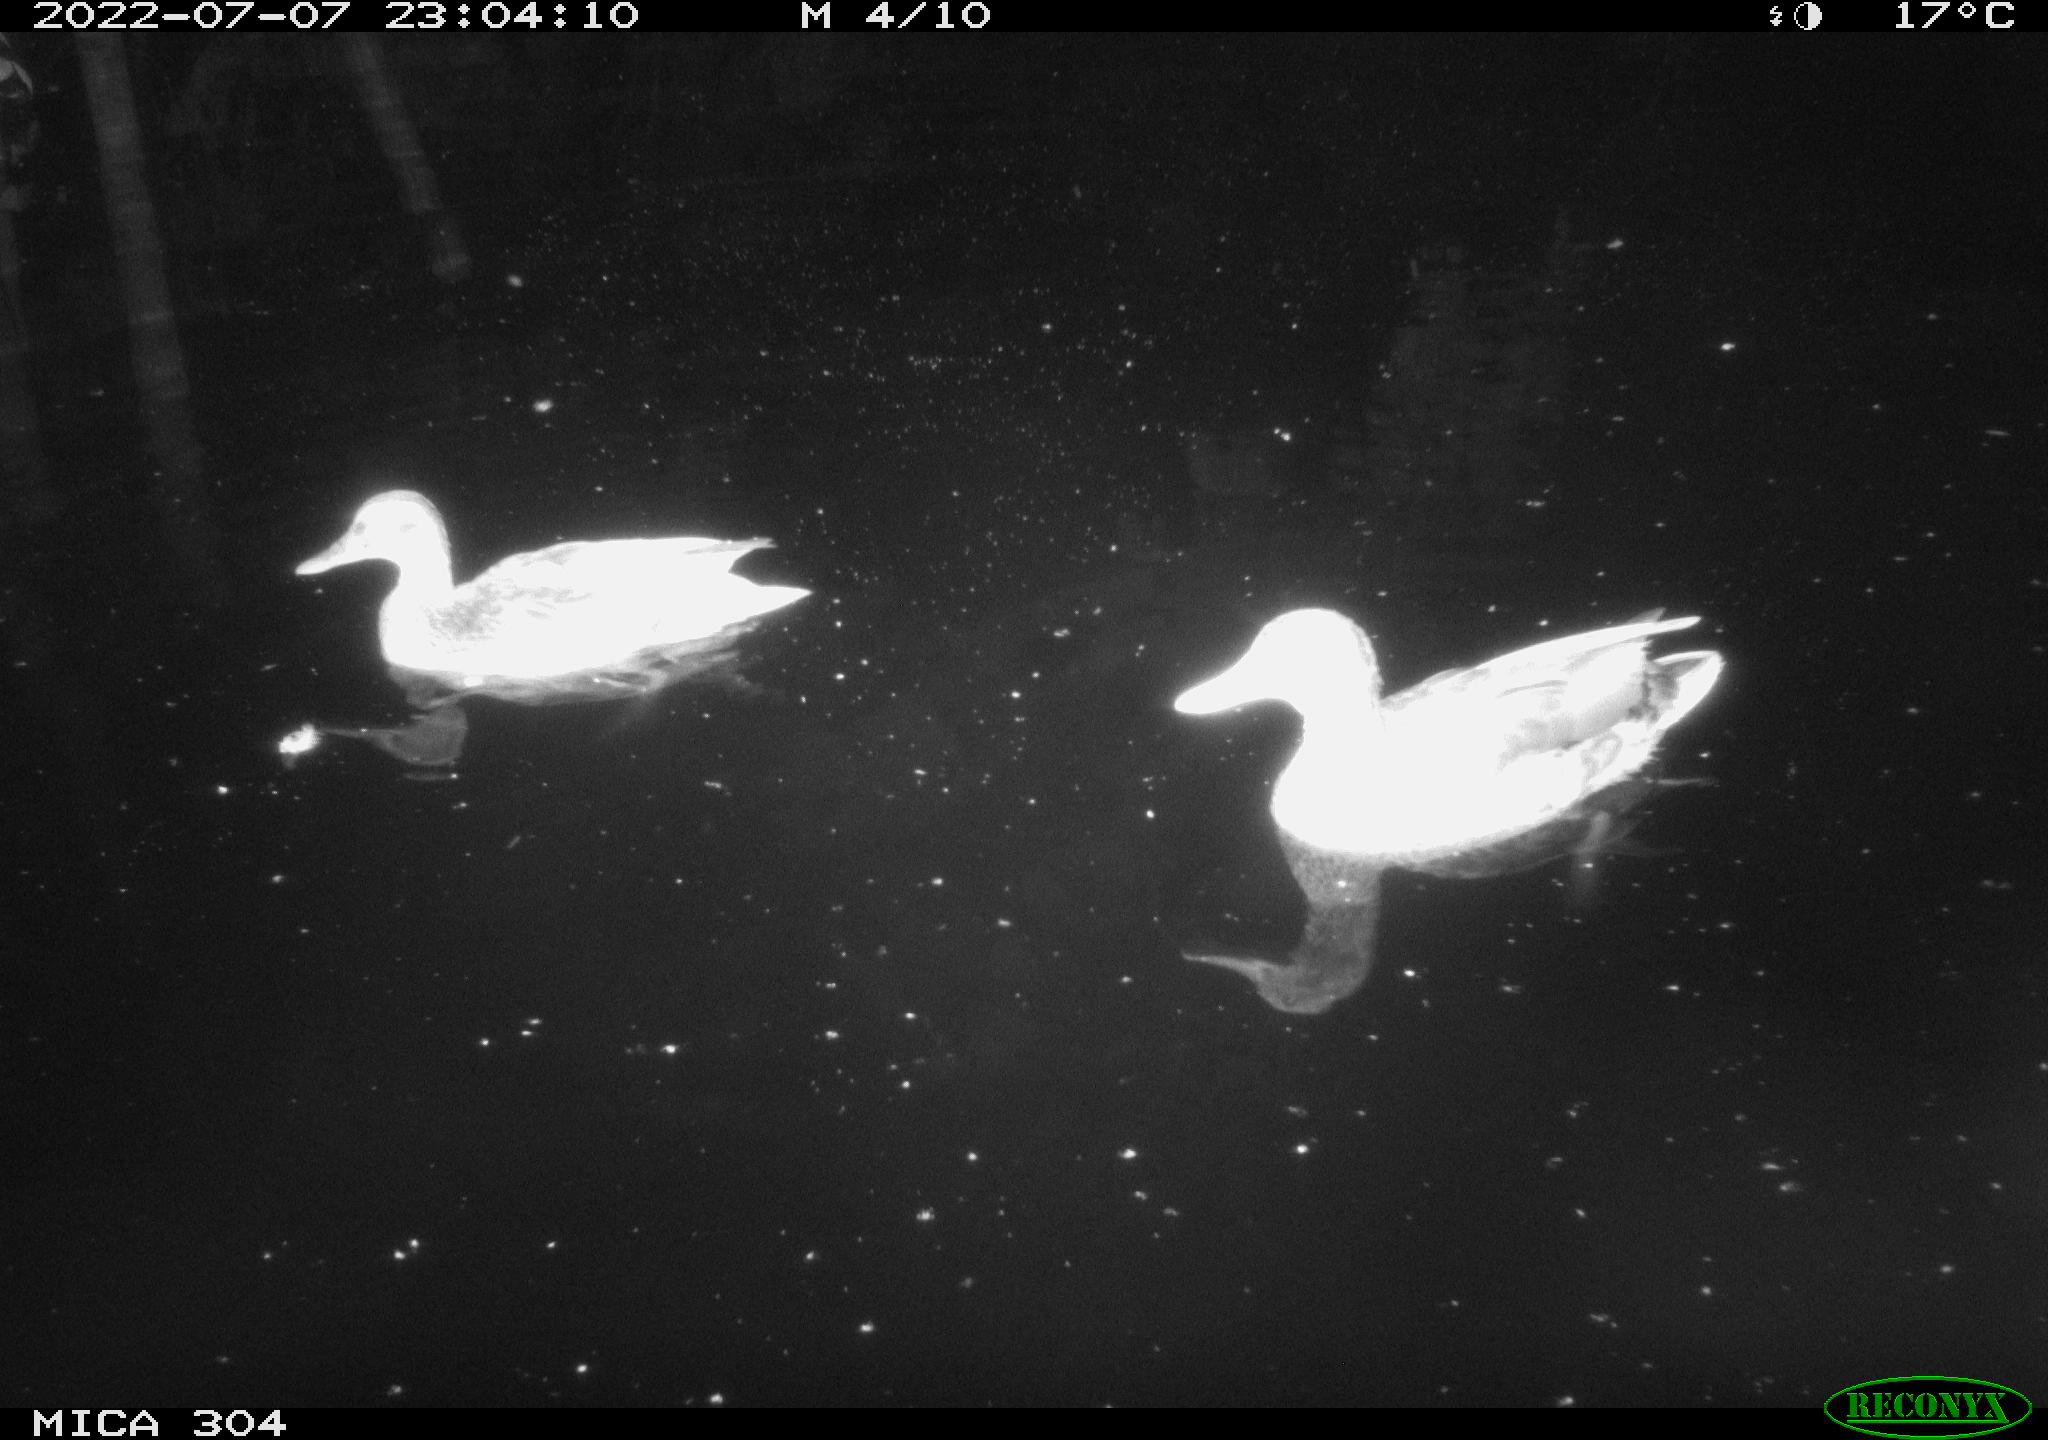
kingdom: Animalia
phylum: Chordata
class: Aves
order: Anseriformes
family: Anatidae
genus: Anas
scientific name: Anas platyrhynchos
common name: Mallard
